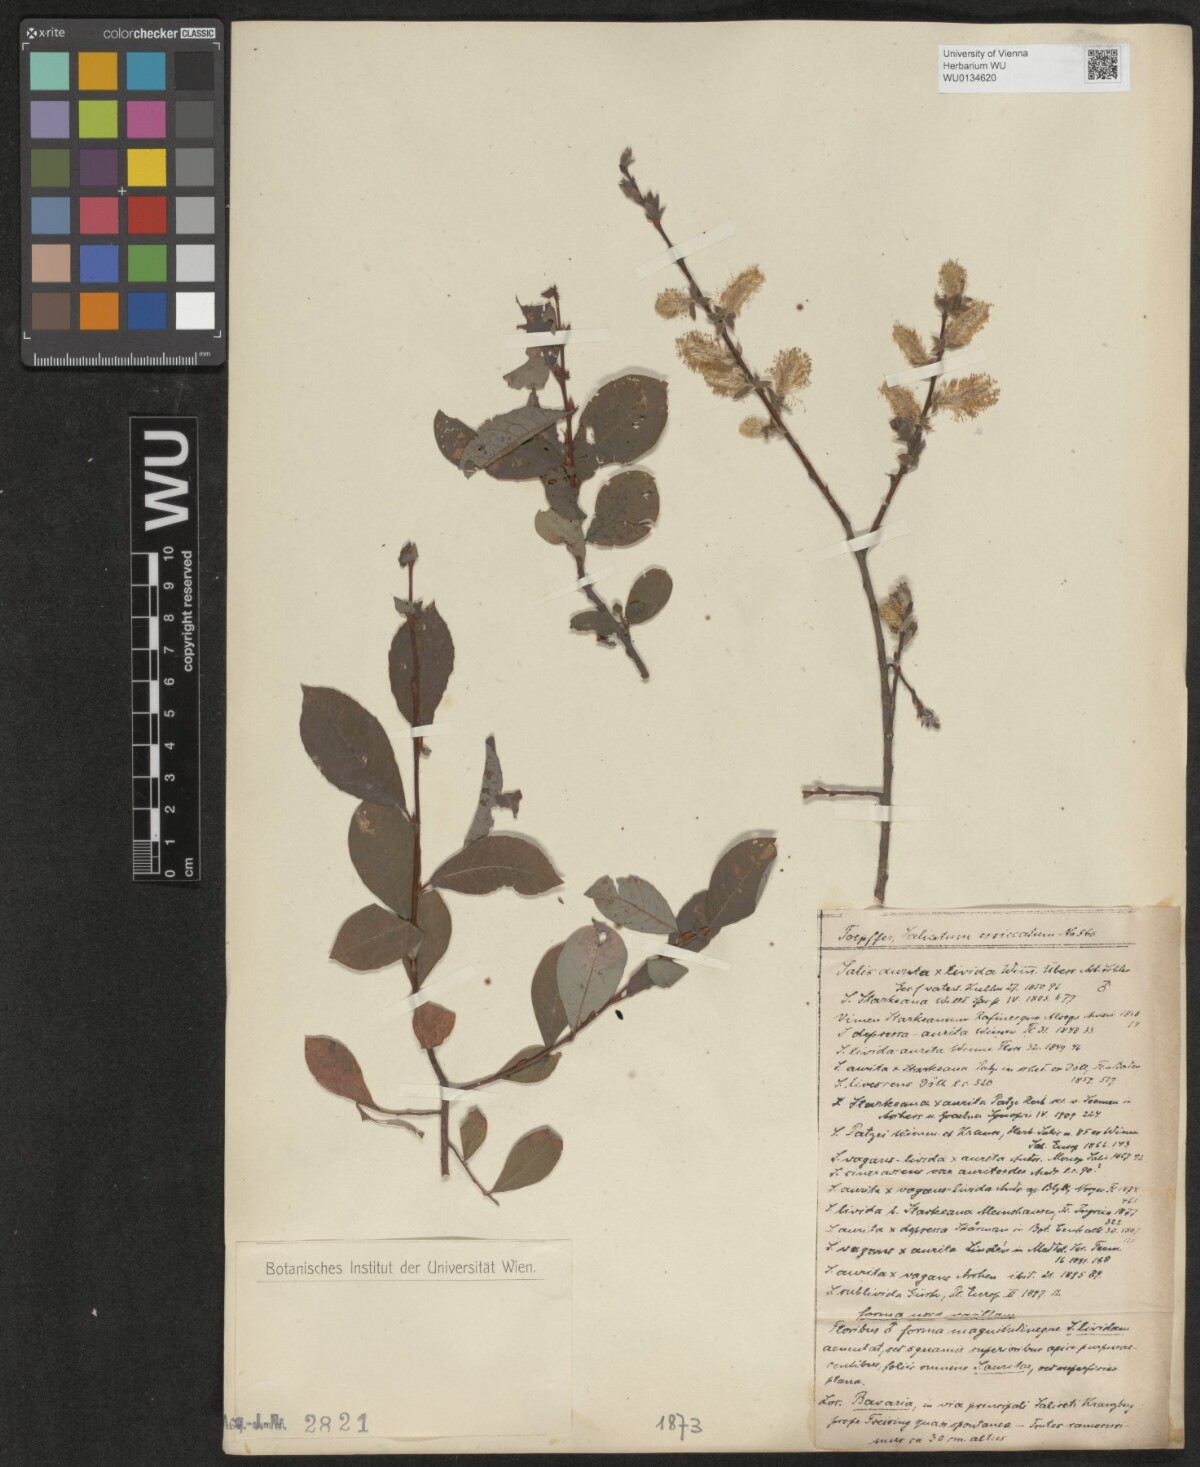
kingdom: Plantae
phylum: Tracheophyta
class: Magnoliopsida
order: Malpighiales
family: Salicaceae
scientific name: Salicaceae
